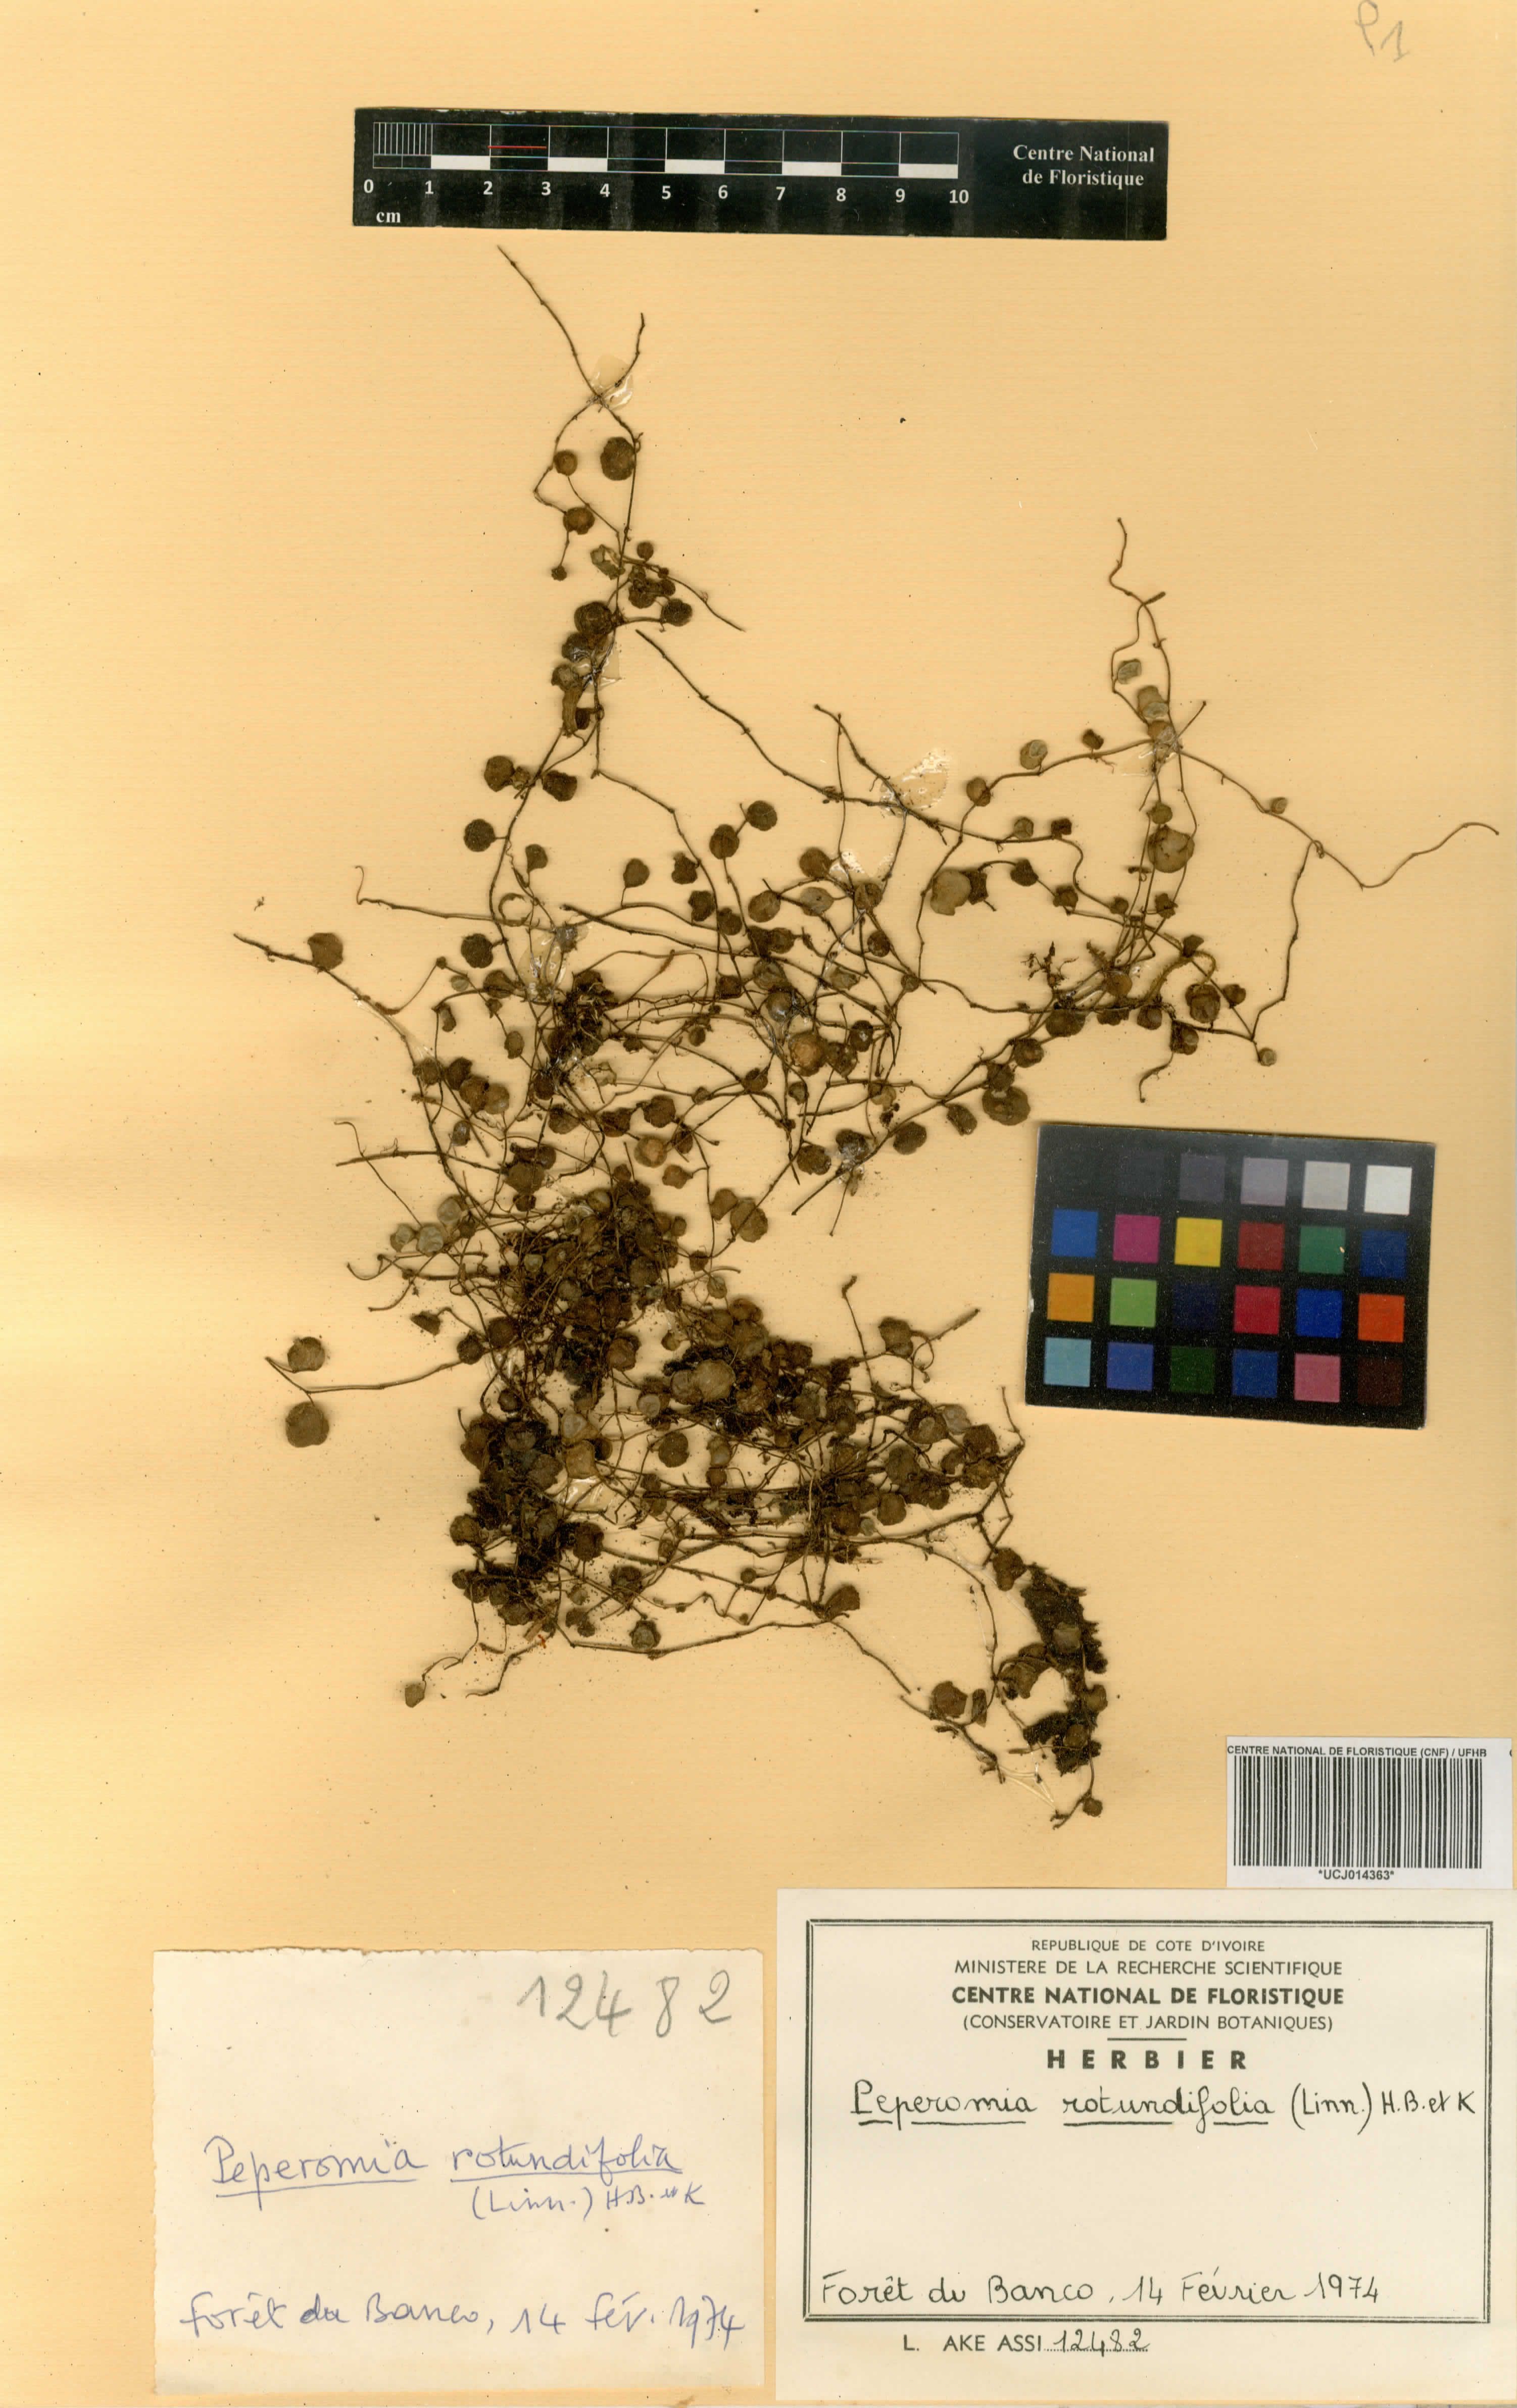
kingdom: Plantae
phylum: Tracheophyta
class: Magnoliopsida
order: Piperales
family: Piperaceae
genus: Peperomia
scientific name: Peperomia rotundifolia
